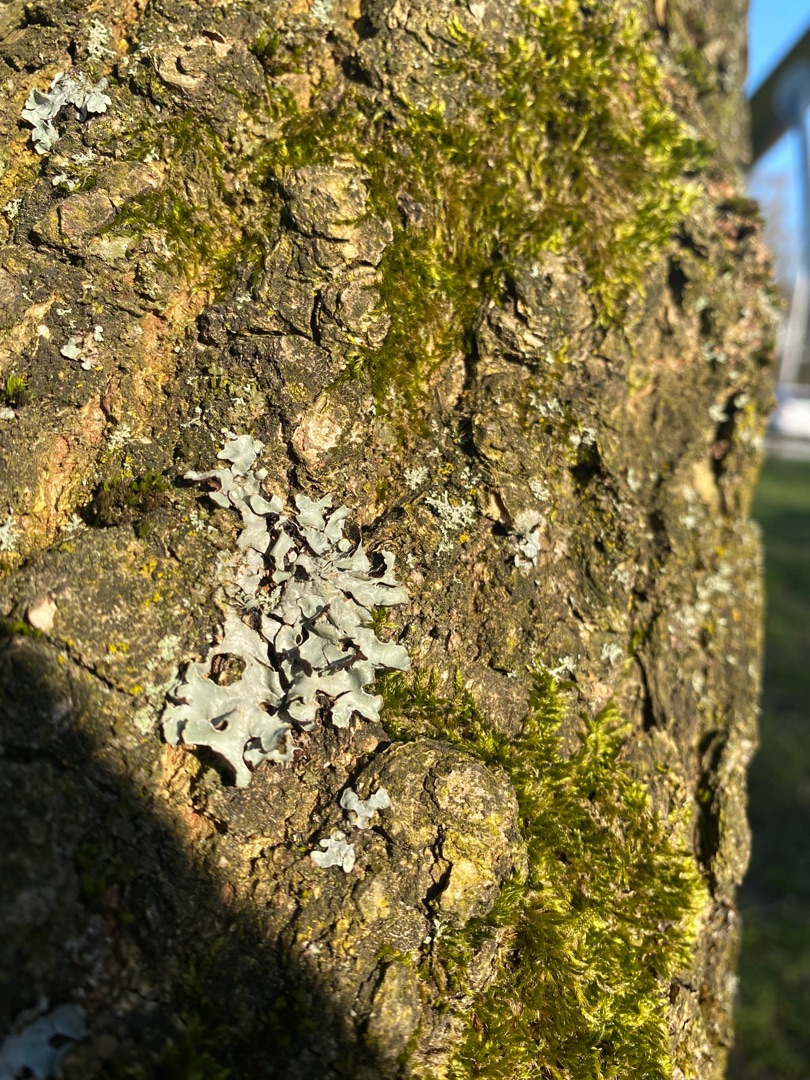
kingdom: Fungi
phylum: Ascomycota
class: Lecanoromycetes
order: Lecanorales
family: Parmeliaceae
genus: Parmelia
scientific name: Parmelia sulcata
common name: Rynket skållav
